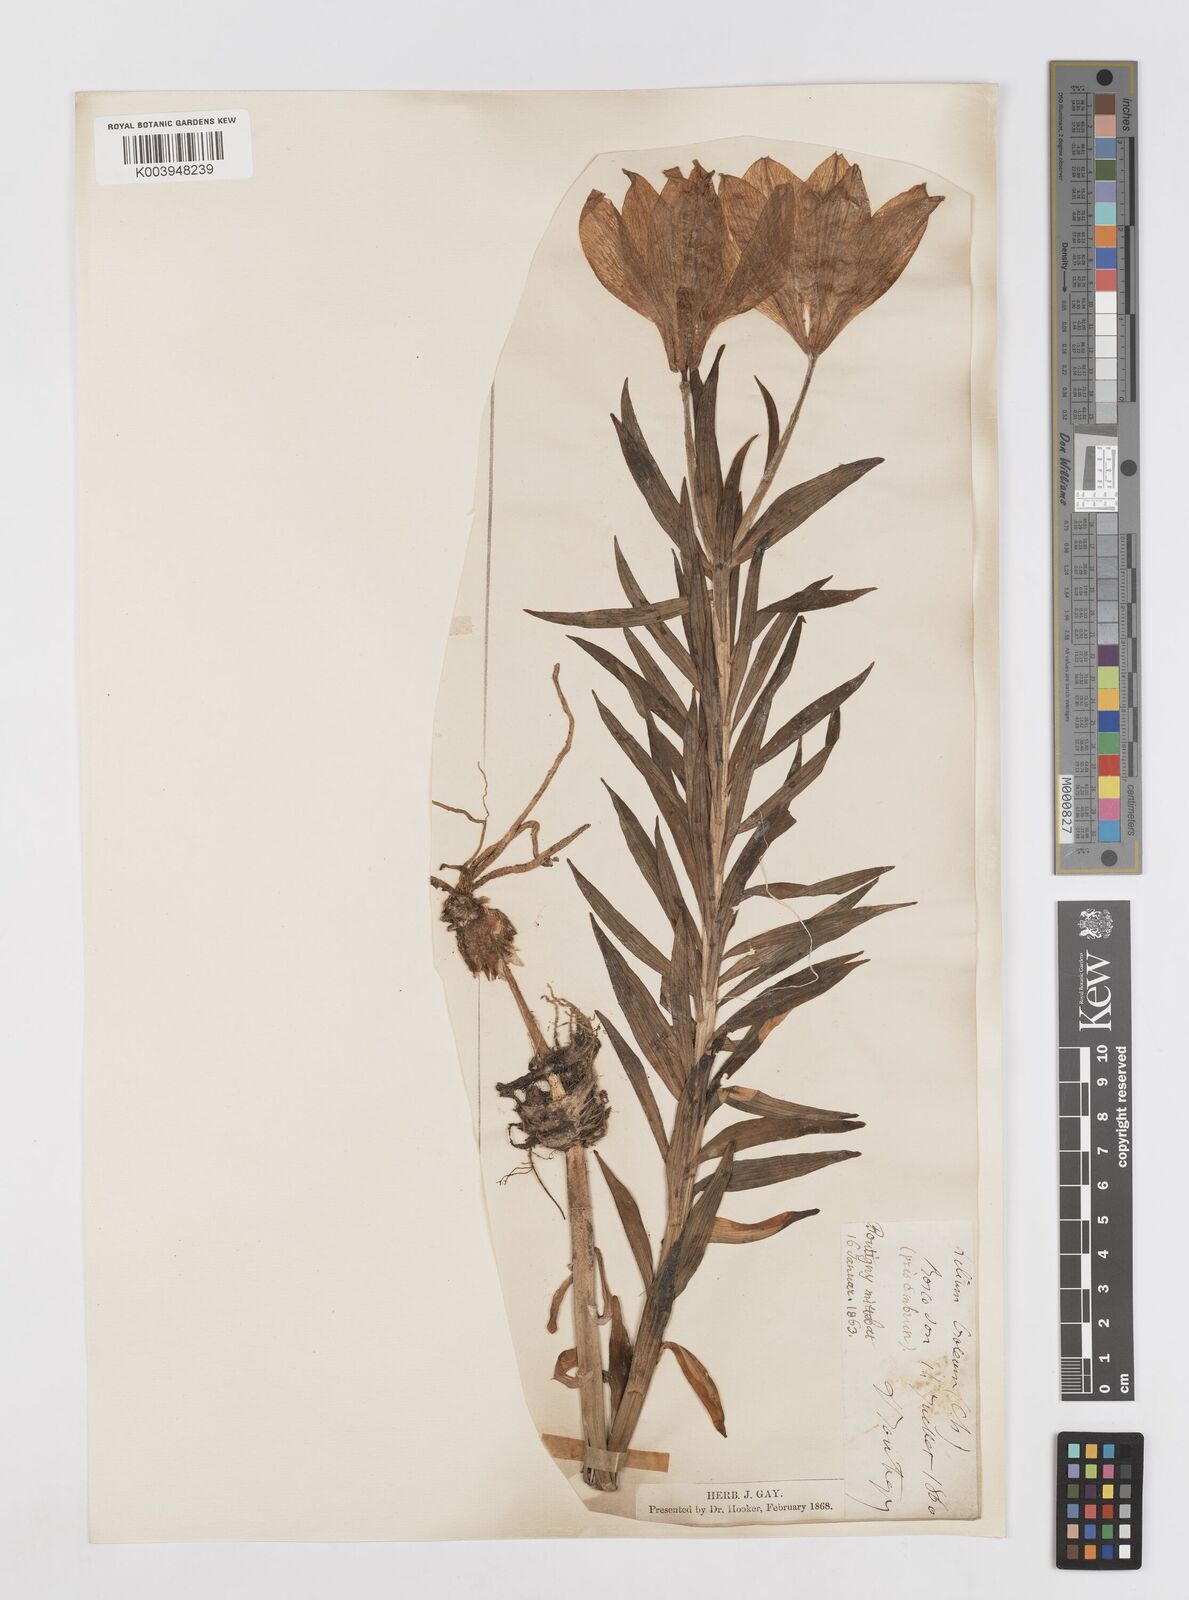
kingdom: Plantae
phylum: Tracheophyta
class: Liliopsida
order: Liliales
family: Liliaceae
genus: Lilium
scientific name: Lilium bulbiferum
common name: Orange lily
